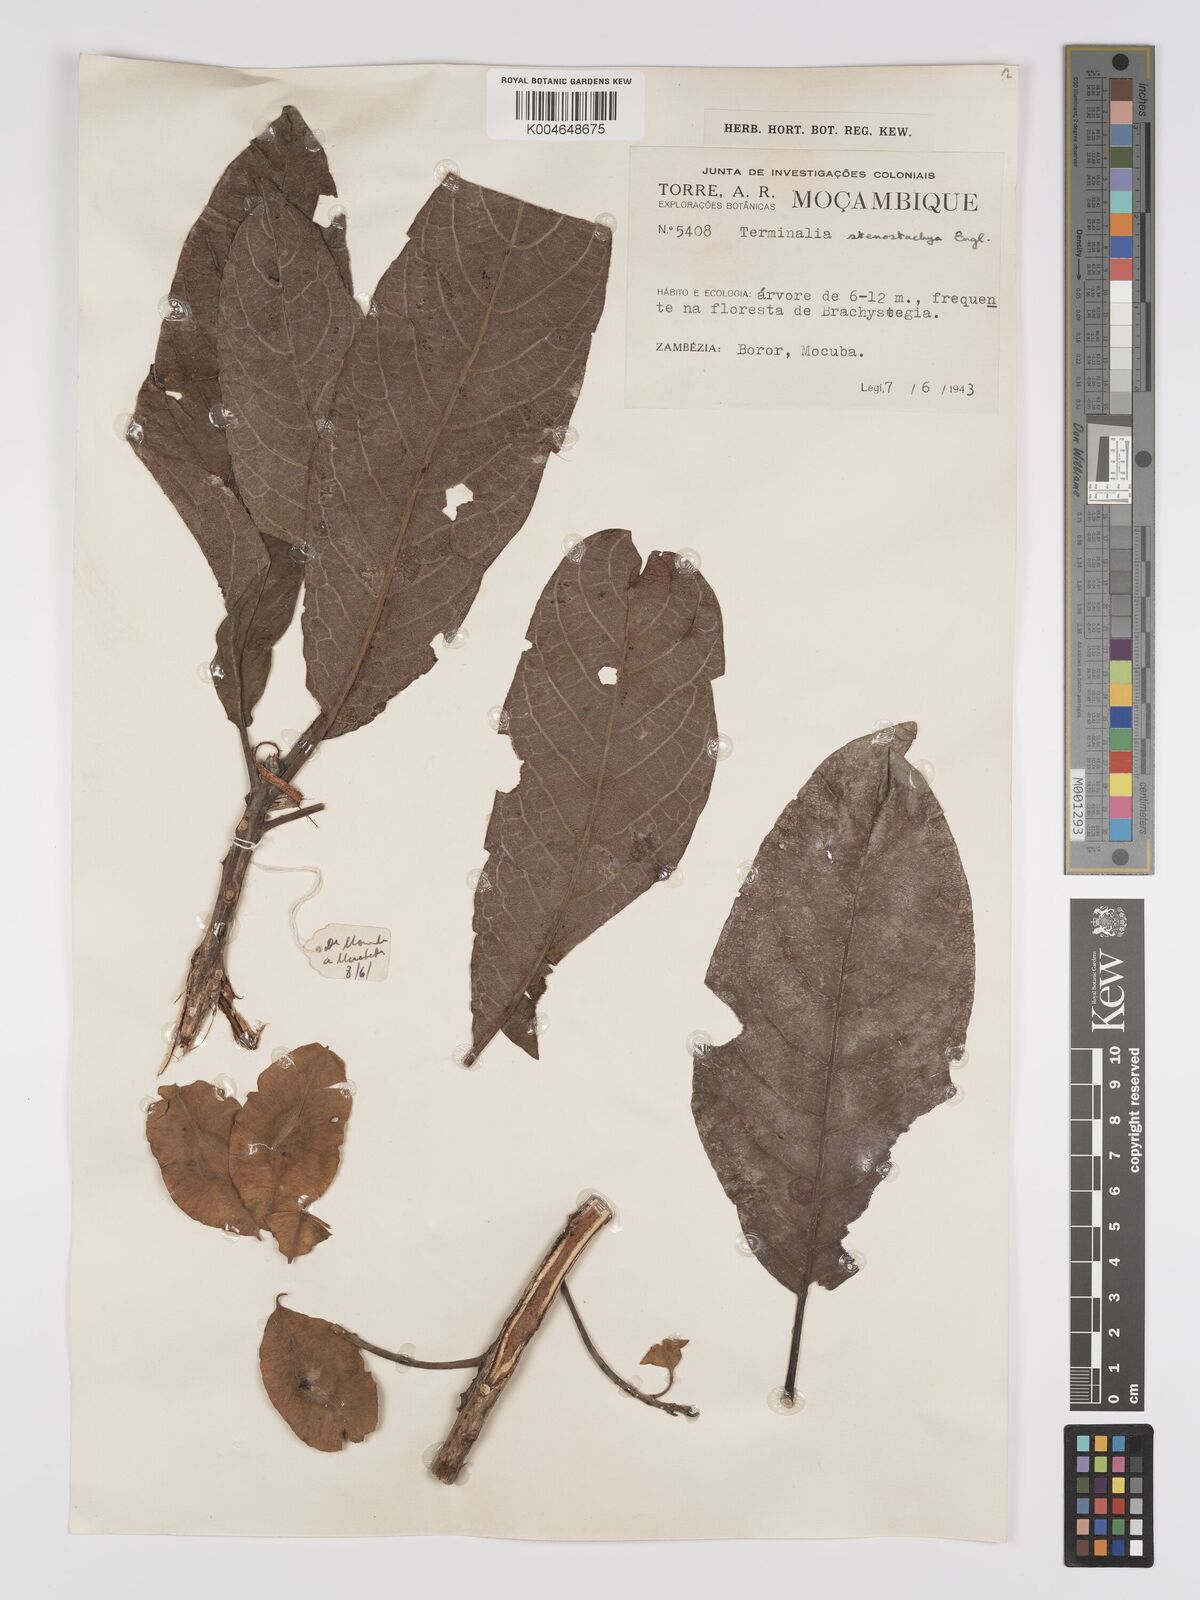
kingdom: Plantae
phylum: Tracheophyta
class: Magnoliopsida
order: Myrtales
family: Combretaceae
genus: Terminalia
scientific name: Terminalia stenostachya
